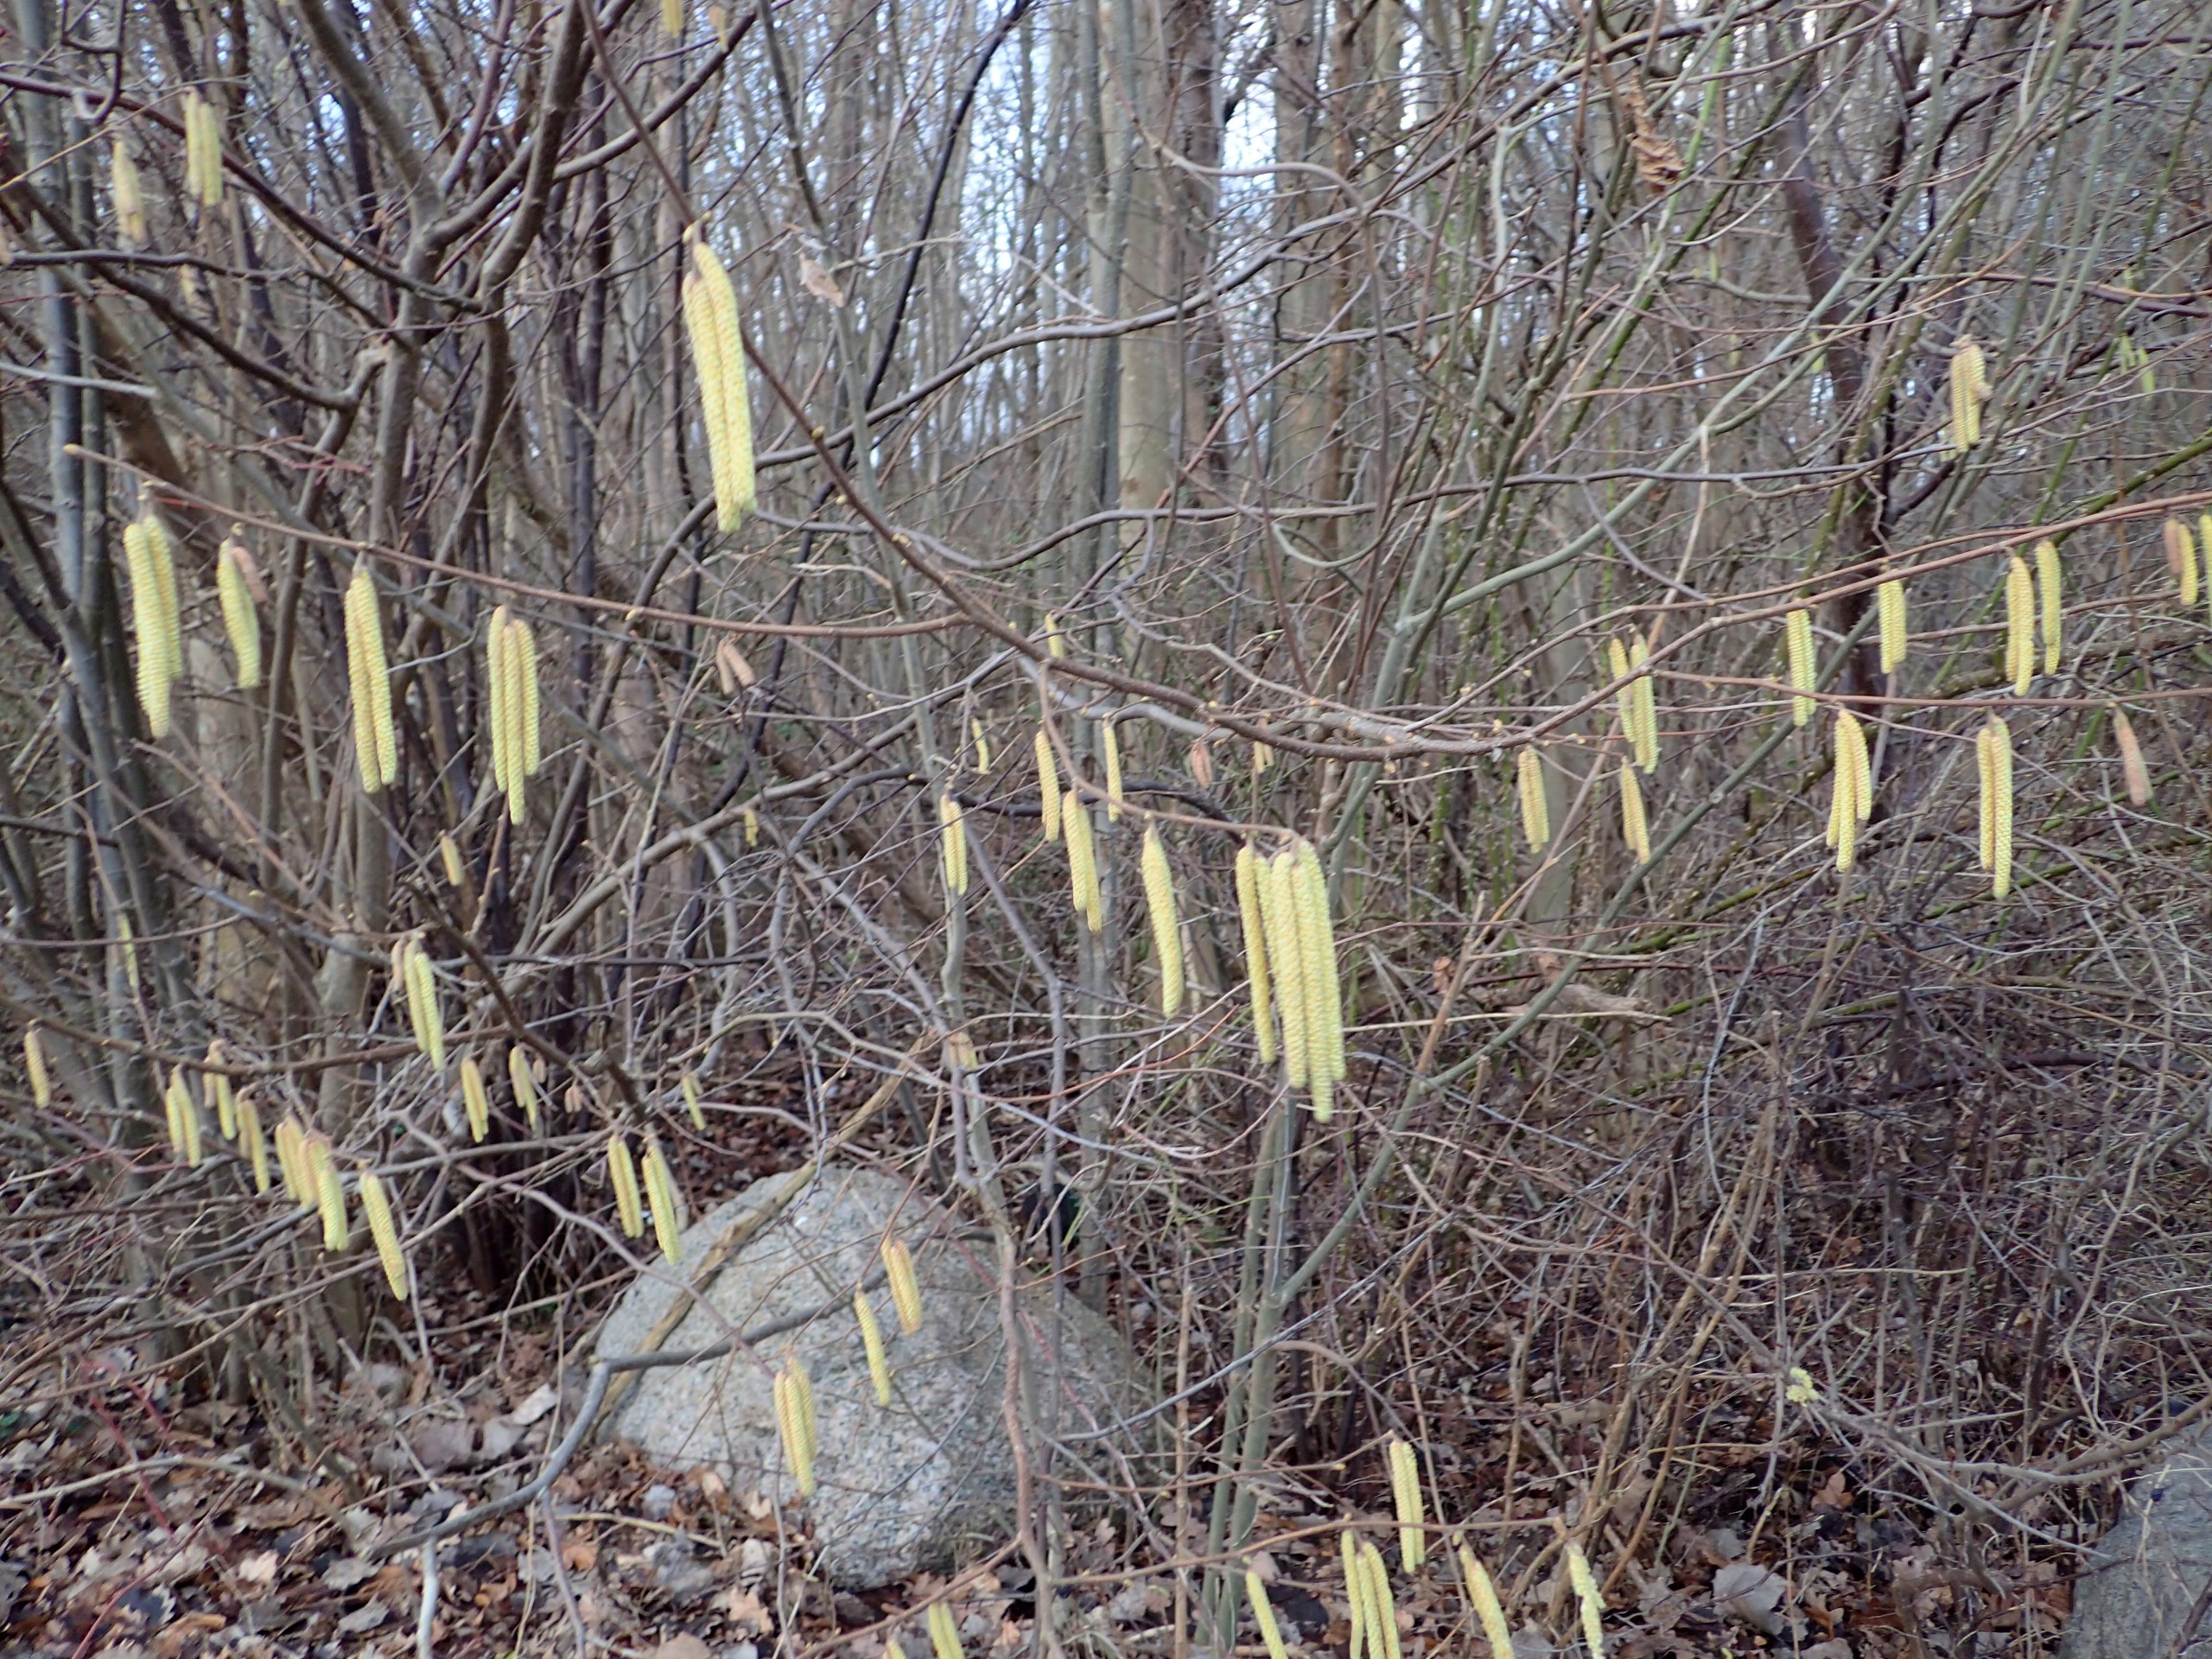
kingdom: Plantae
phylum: Tracheophyta
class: Magnoliopsida
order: Fagales
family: Betulaceae
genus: Corylus
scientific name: Corylus avellana
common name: Hassel
